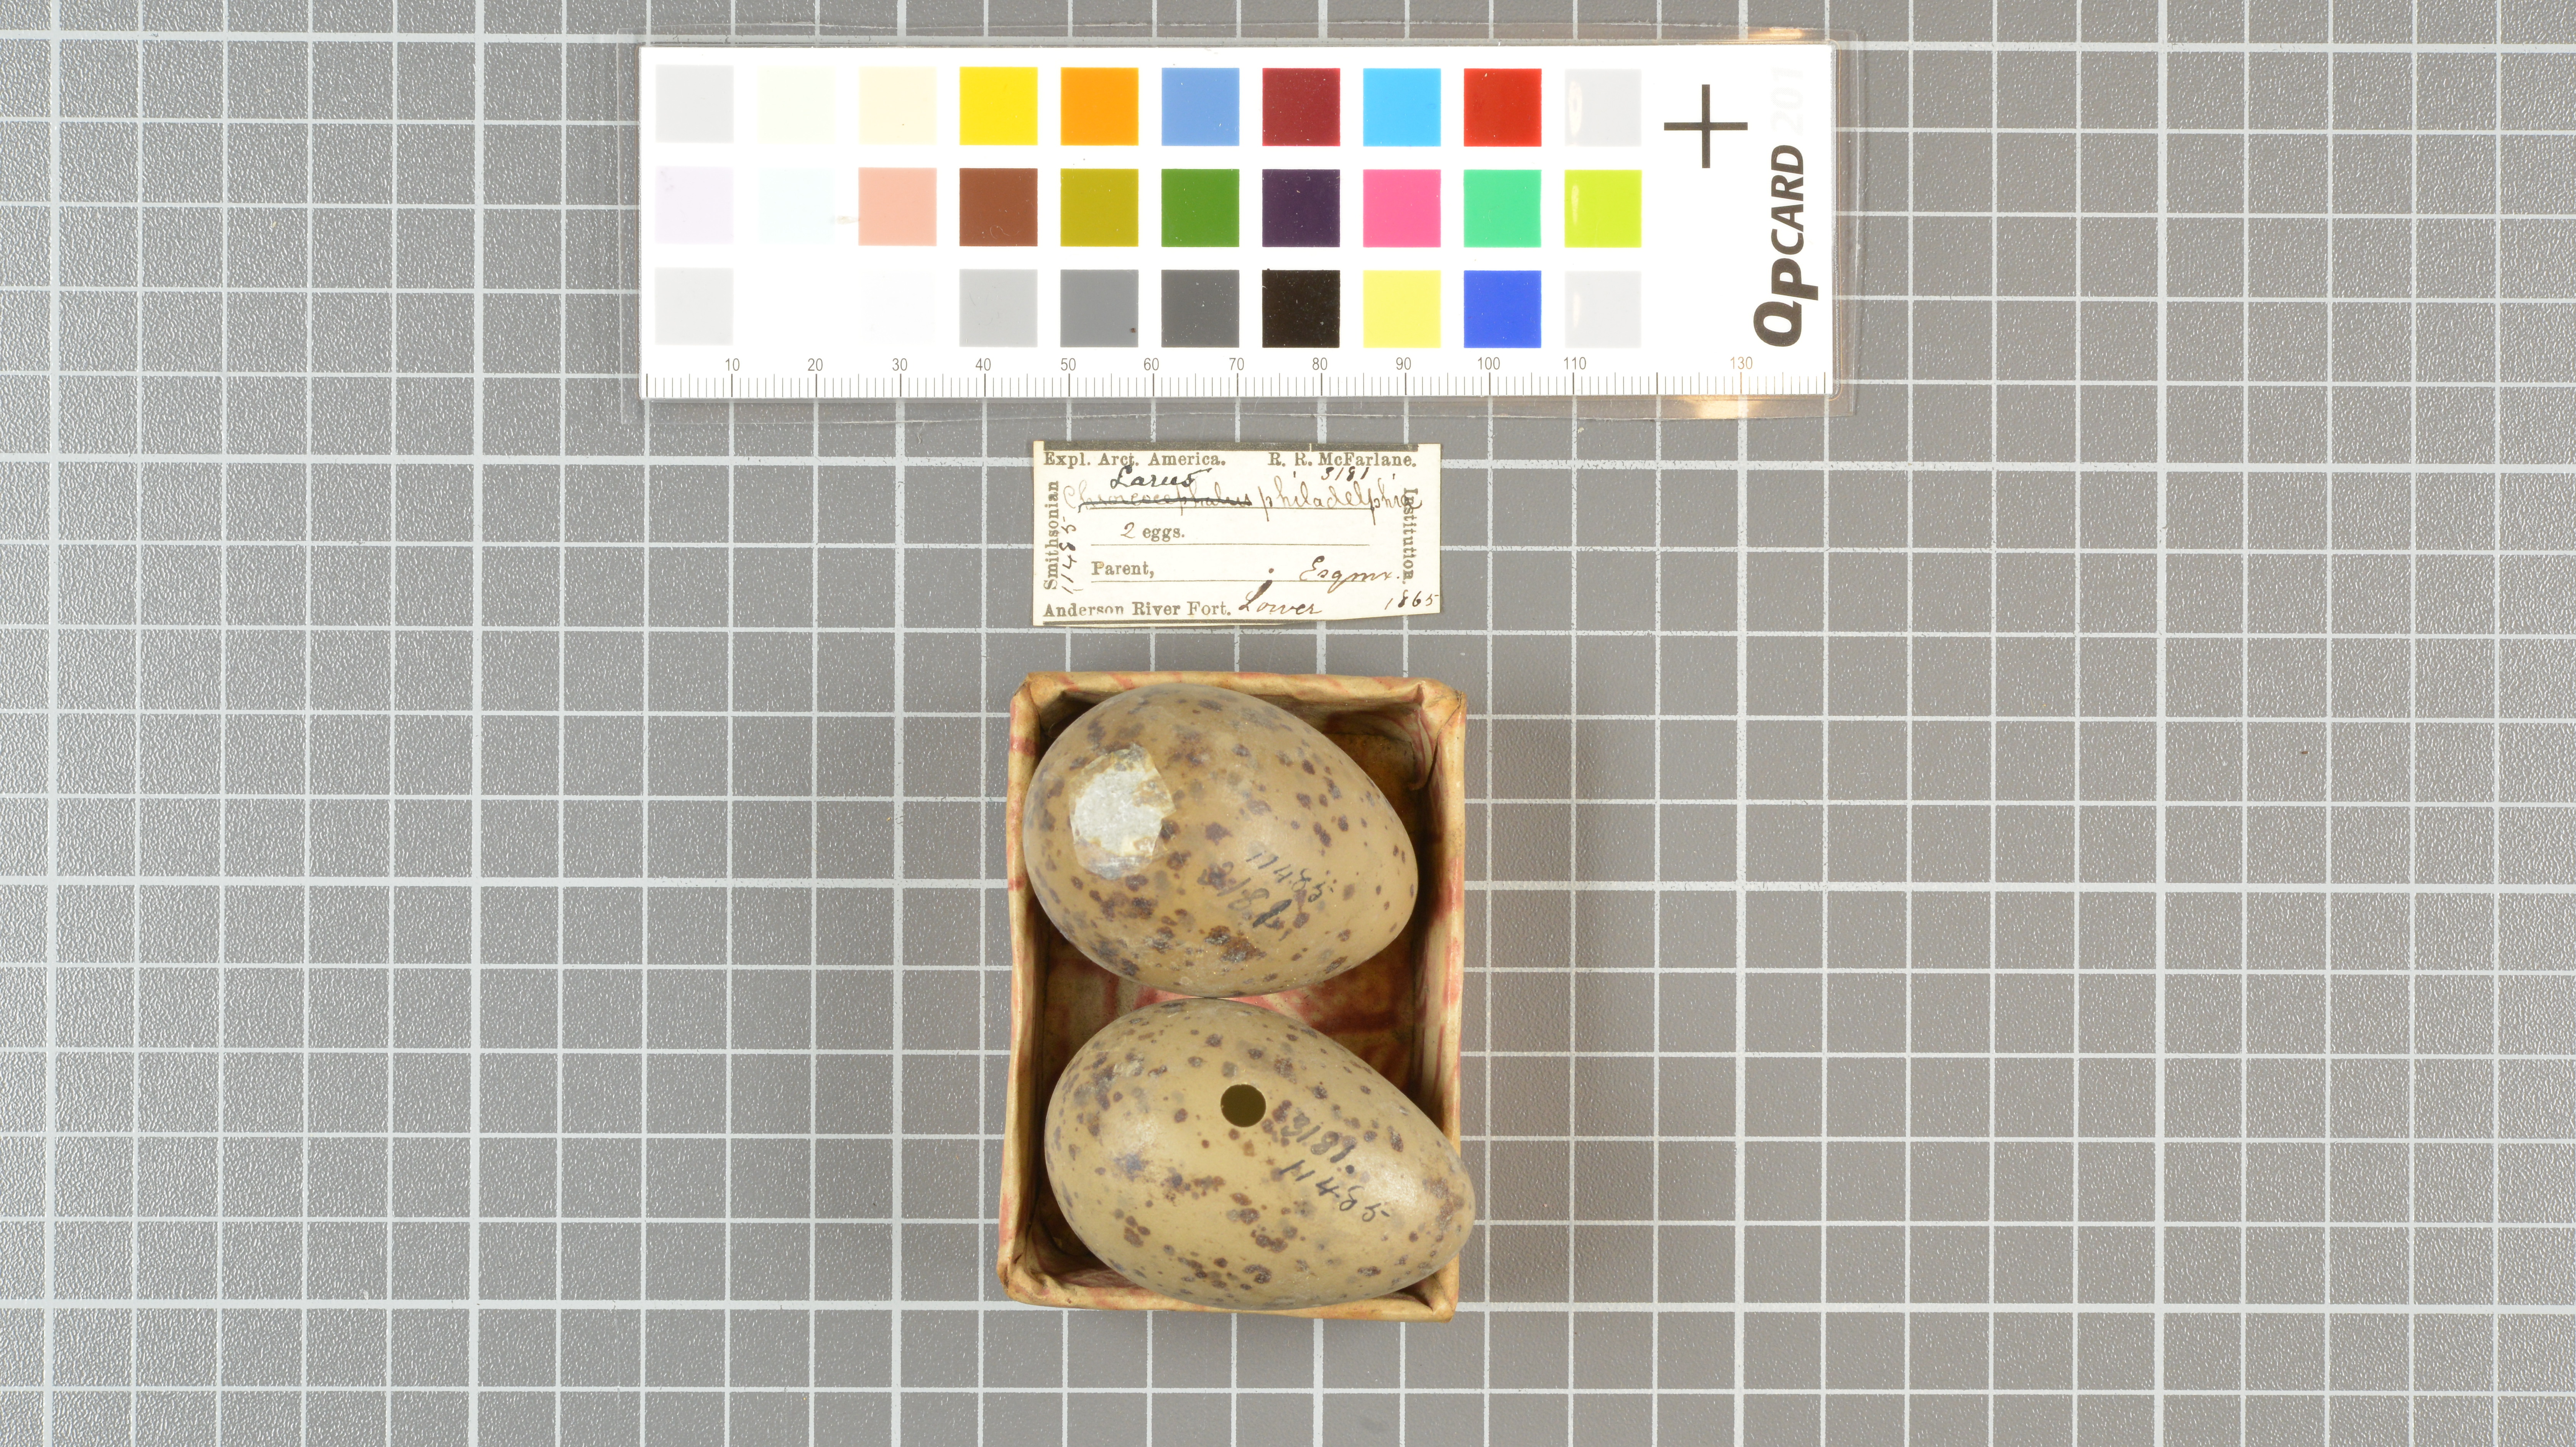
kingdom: Animalia
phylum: Chordata
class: Aves
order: Charadriiformes
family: Laridae
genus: Chroicocephalus
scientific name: Chroicocephalus philadelphia
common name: Bonaparte's gull
